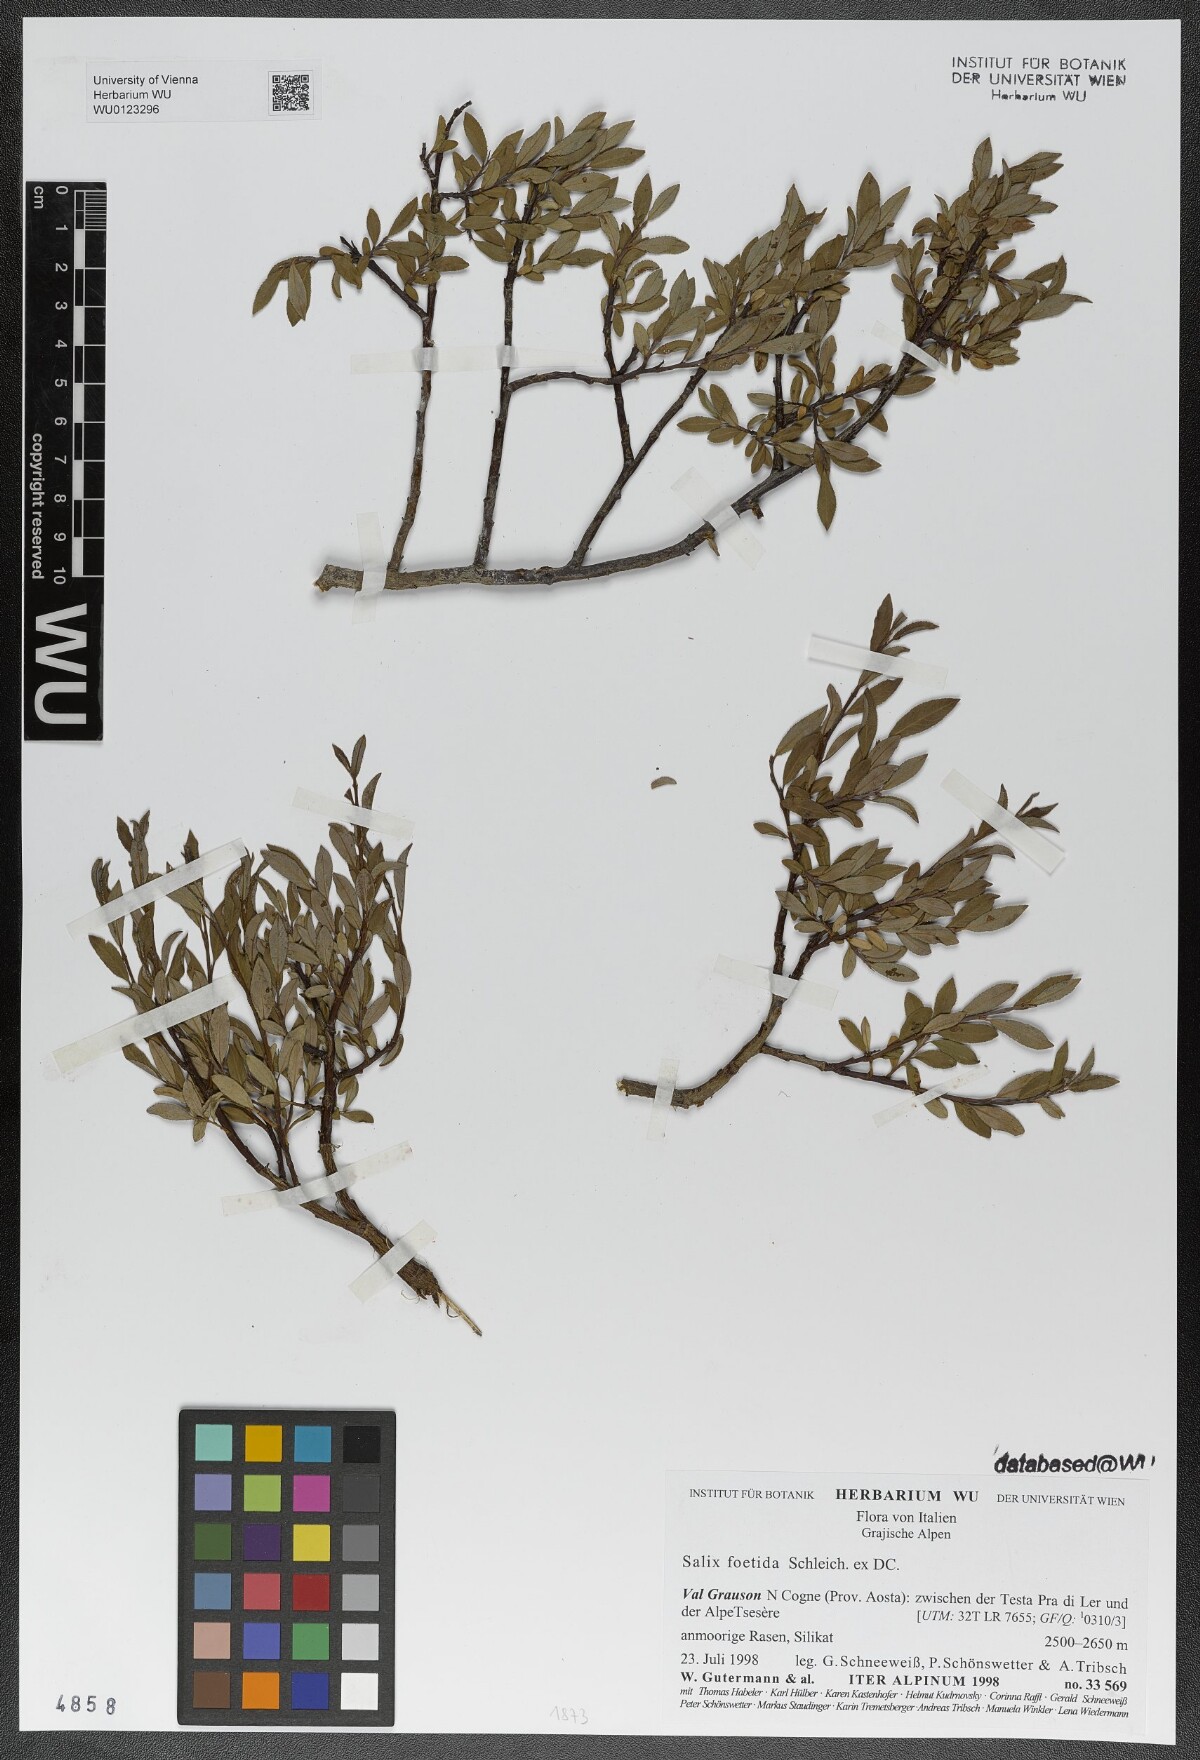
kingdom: Plantae
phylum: Tracheophyta
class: Magnoliopsida
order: Malpighiales
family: Salicaceae
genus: Salix
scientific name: Salix foetida
